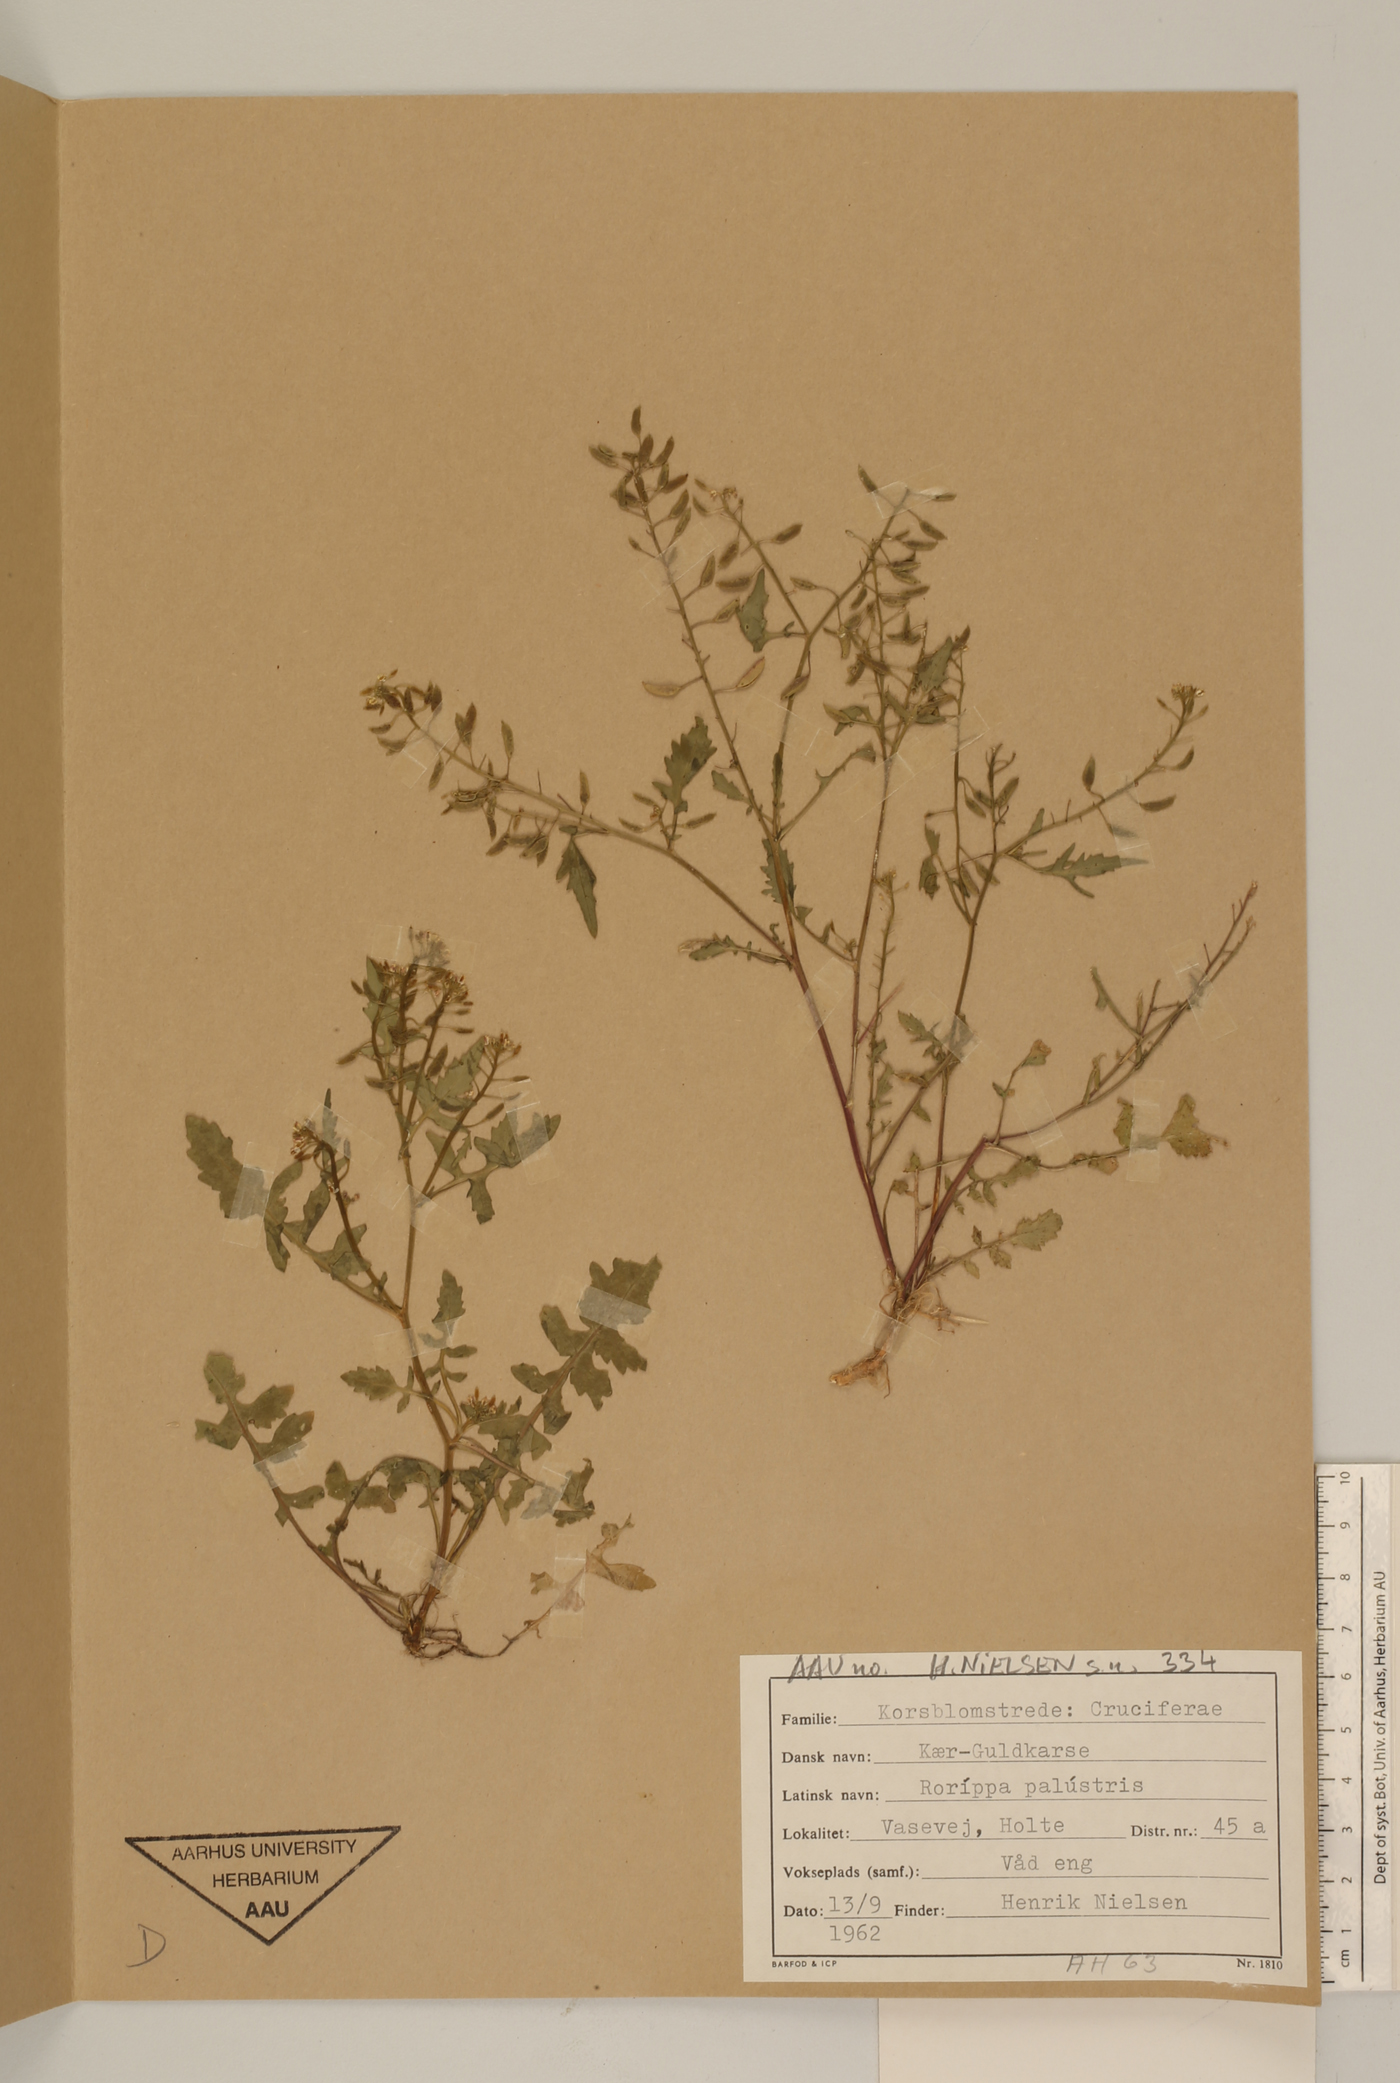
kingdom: Plantae
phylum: Tracheophyta
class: Magnoliopsida
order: Brassicales
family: Brassicaceae
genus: Rorippa
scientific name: Rorippa palustris
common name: Marsh yellow-cress
